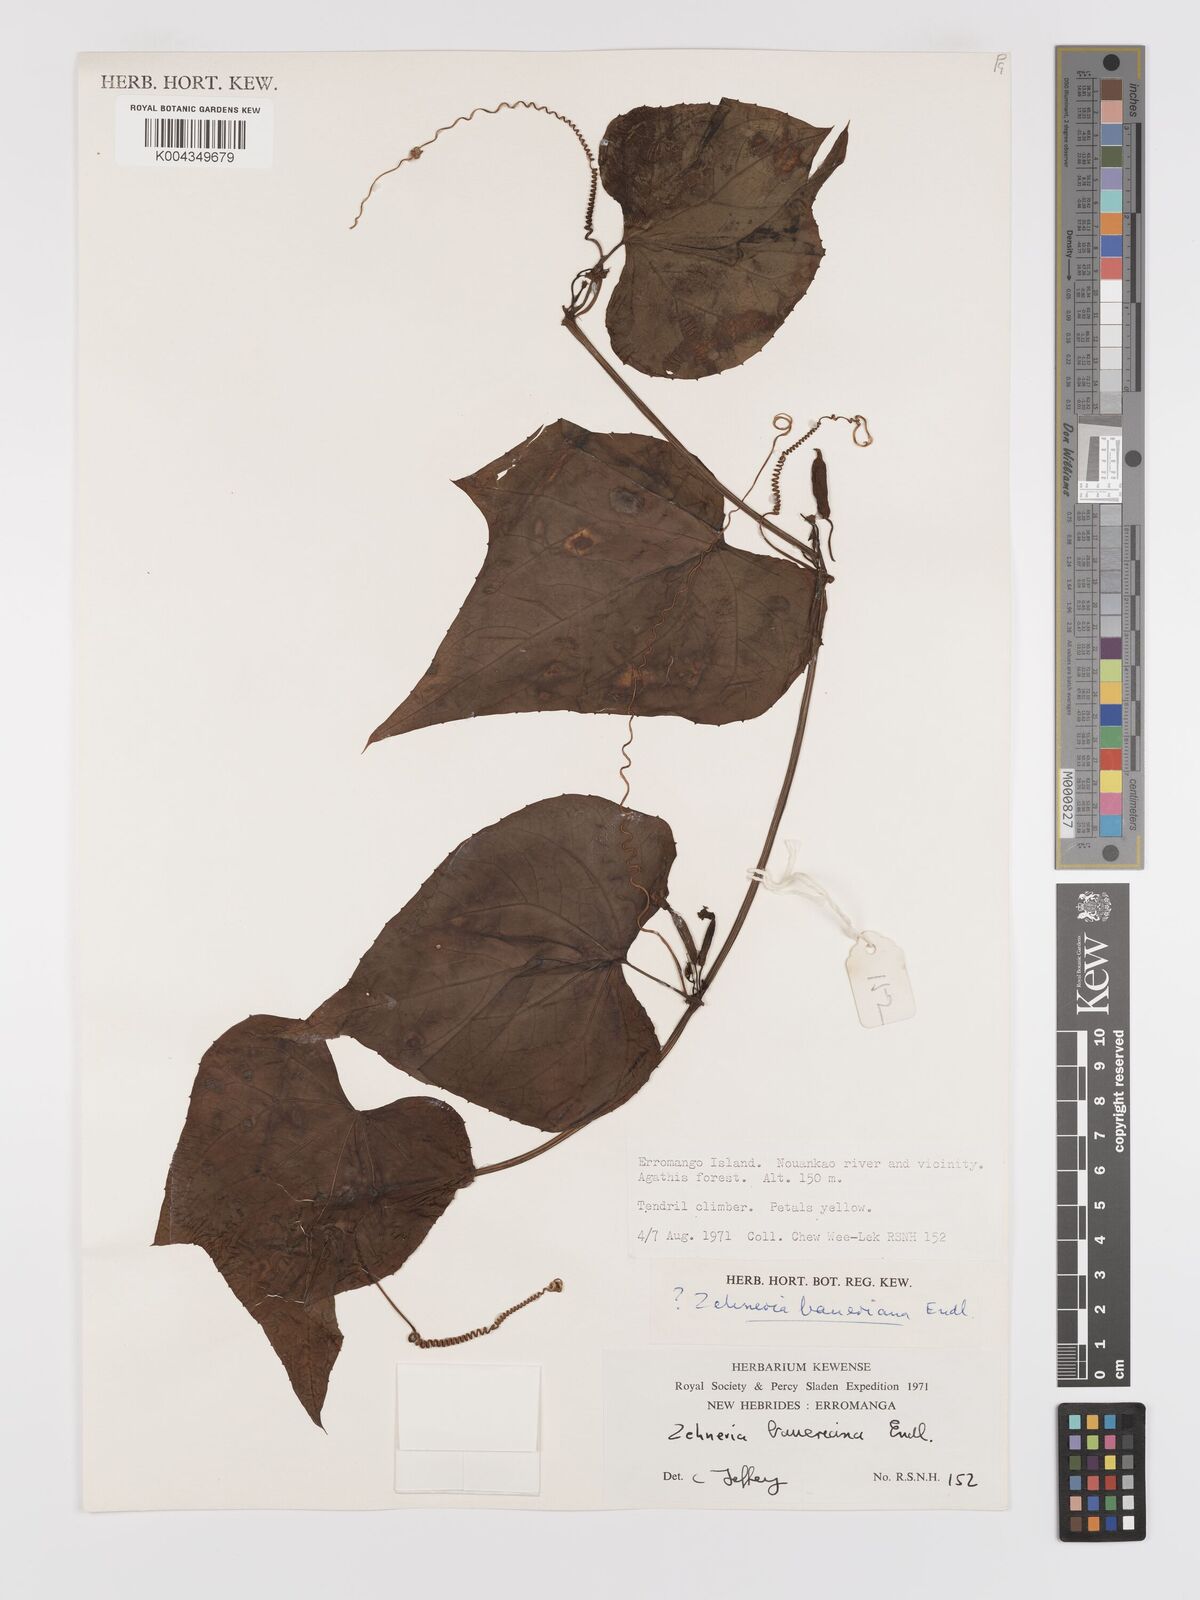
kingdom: Plantae
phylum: Tracheophyta
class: Magnoliopsida
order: Cucurbitales
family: Cucurbitaceae
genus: Zehneria
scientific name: Zehneria mucronata
